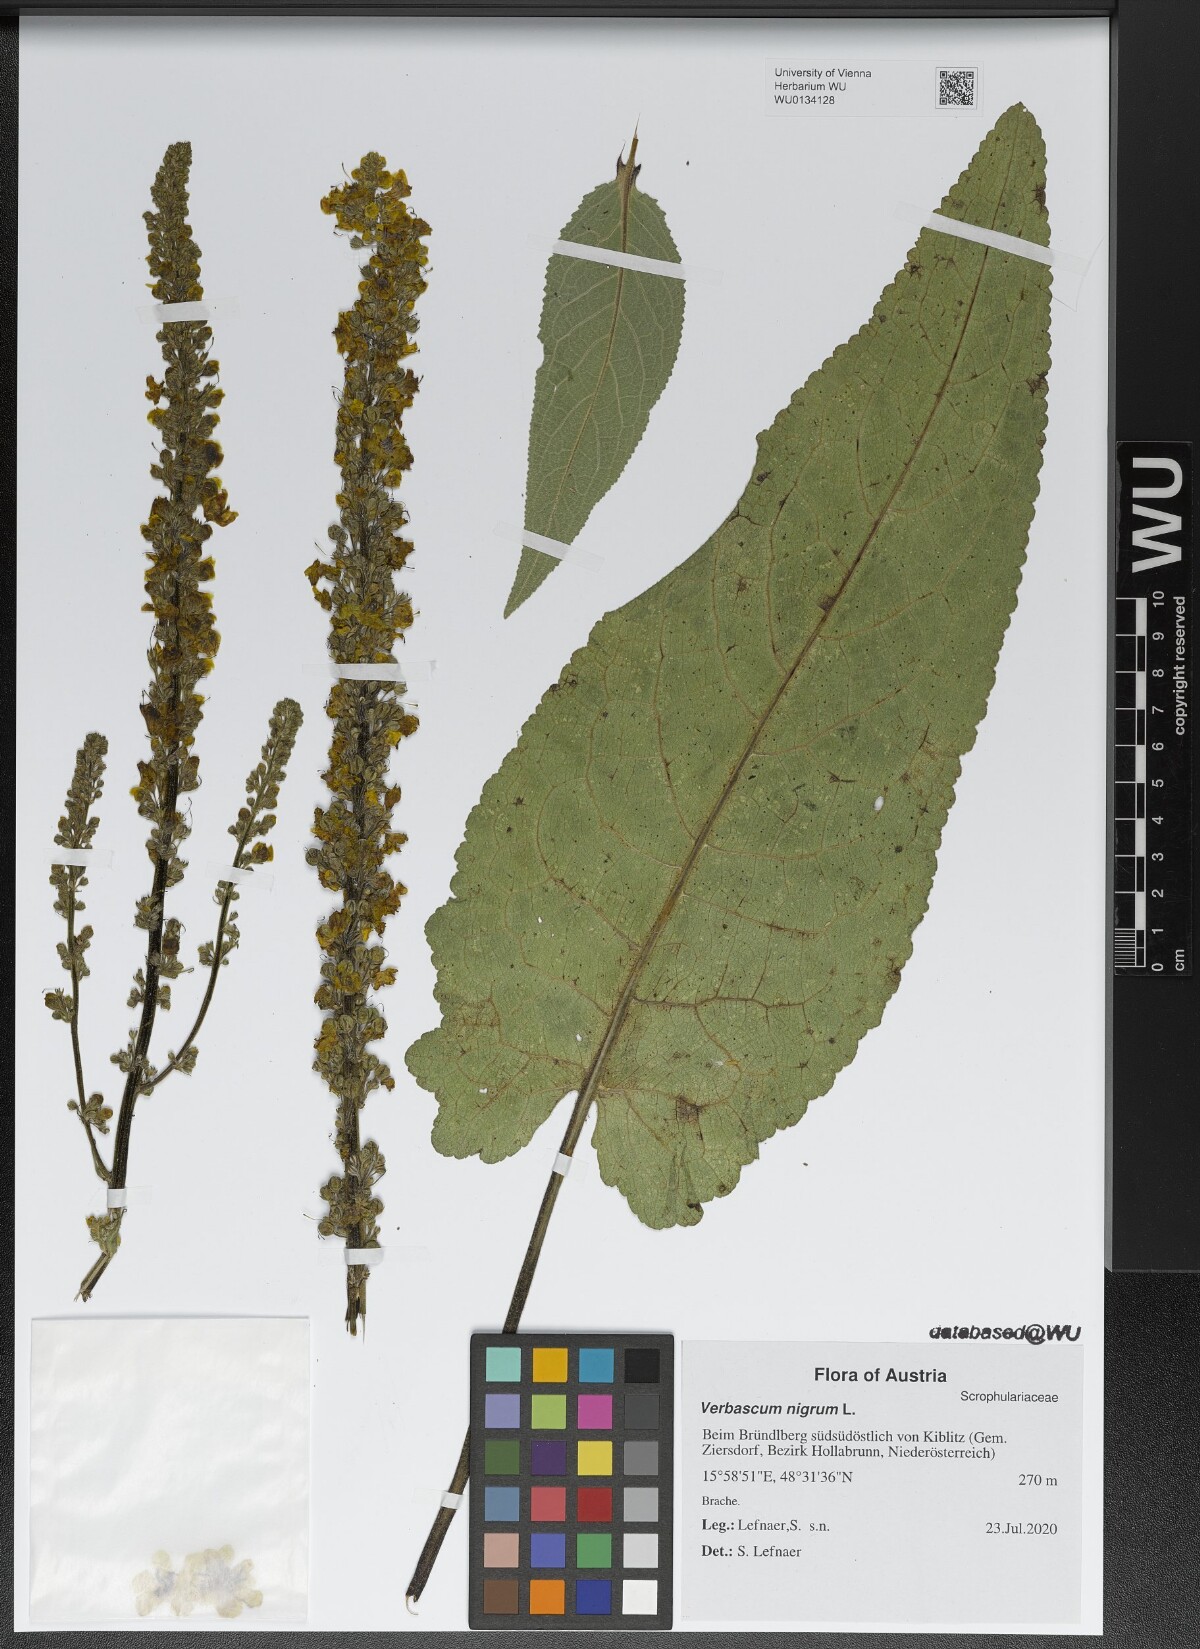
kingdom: Plantae
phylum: Tracheophyta
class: Magnoliopsida
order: Lamiales
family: Scrophulariaceae
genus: Verbascum
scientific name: Verbascum nigrum
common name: Dark mullein
